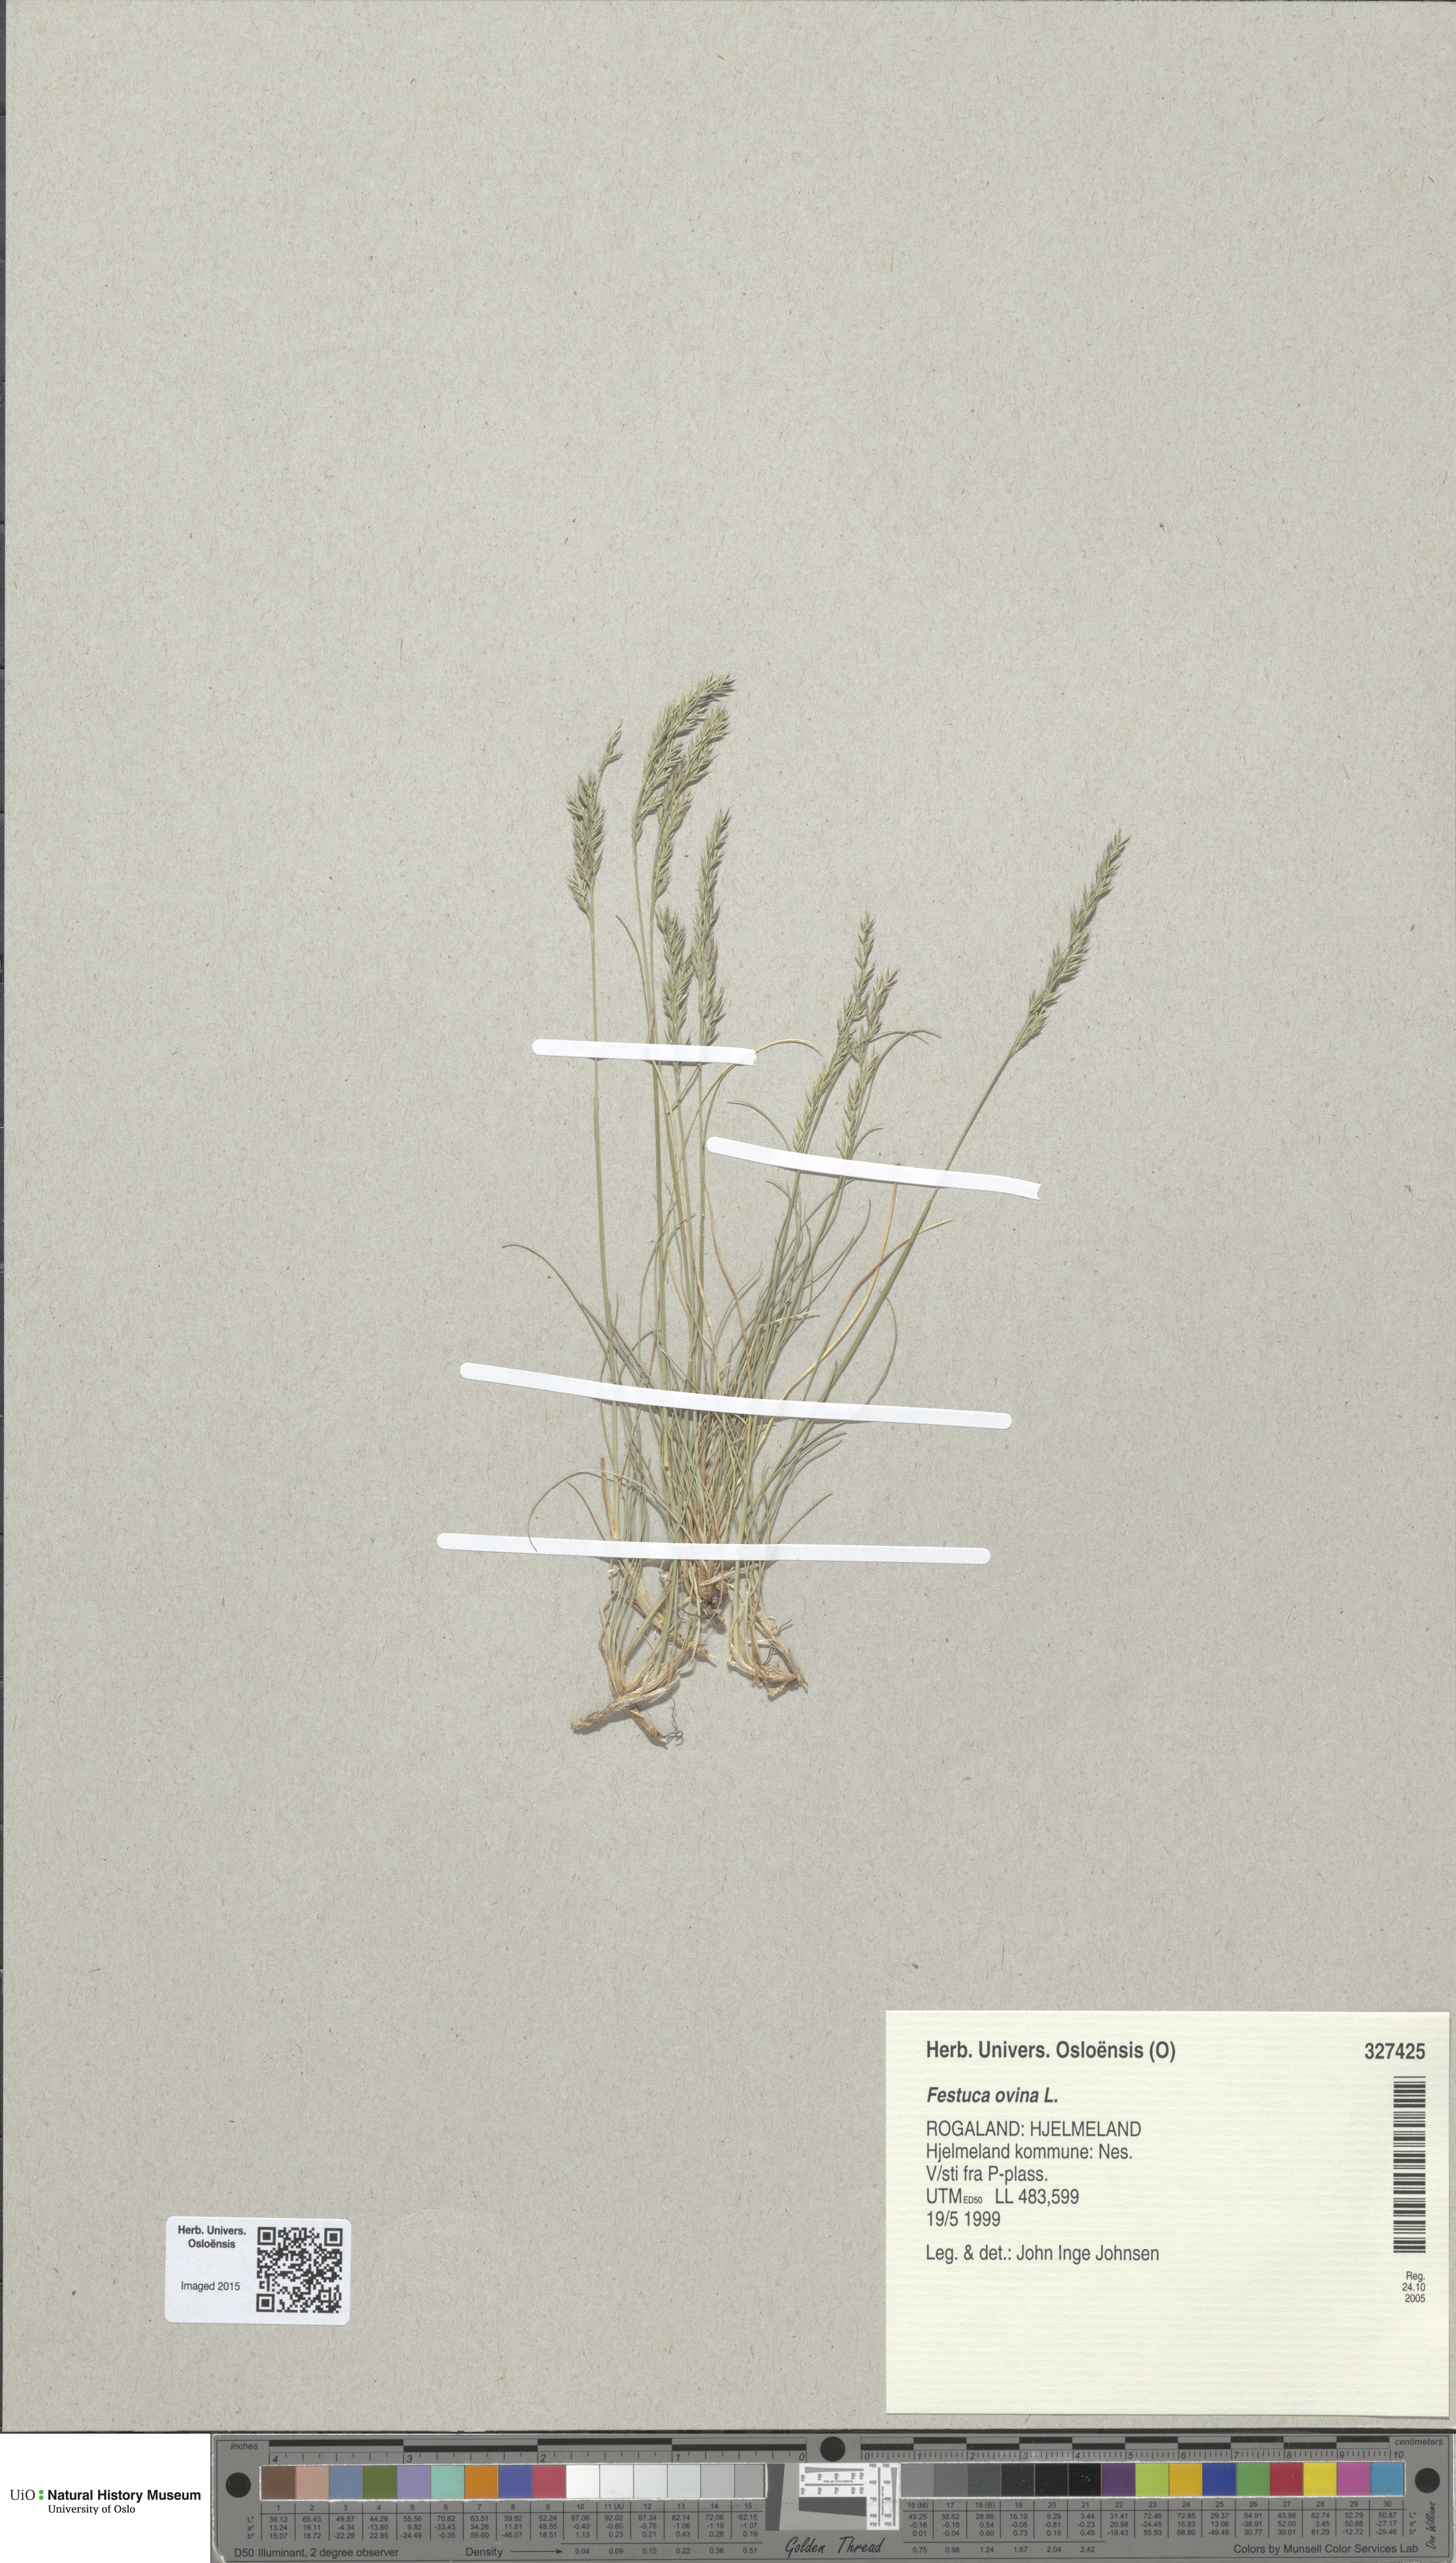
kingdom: Plantae
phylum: Tracheophyta
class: Liliopsida
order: Poales
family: Poaceae
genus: Festuca
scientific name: Festuca ovina
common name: Sheep fescue
